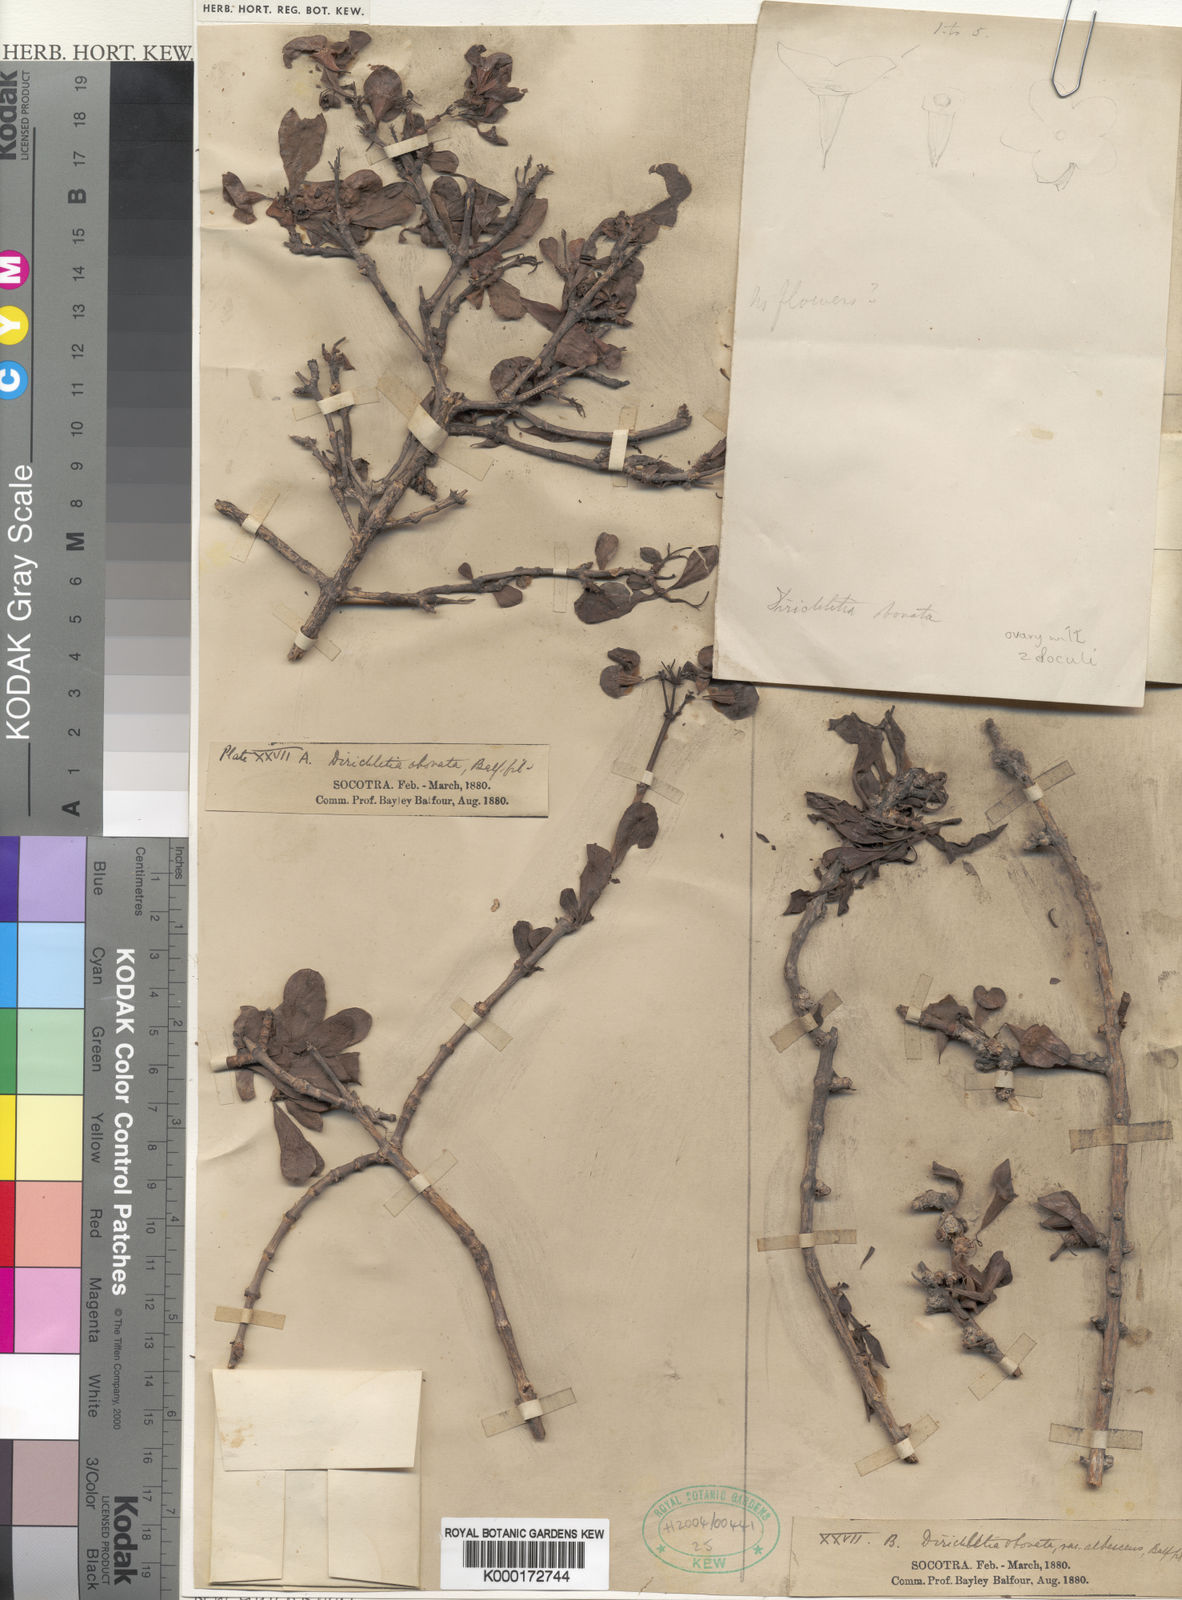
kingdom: Plantae
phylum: Tracheophyta
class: Magnoliopsida
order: Gentianales
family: Rubiaceae
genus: Dirichletia
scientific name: Dirichletia obovata
